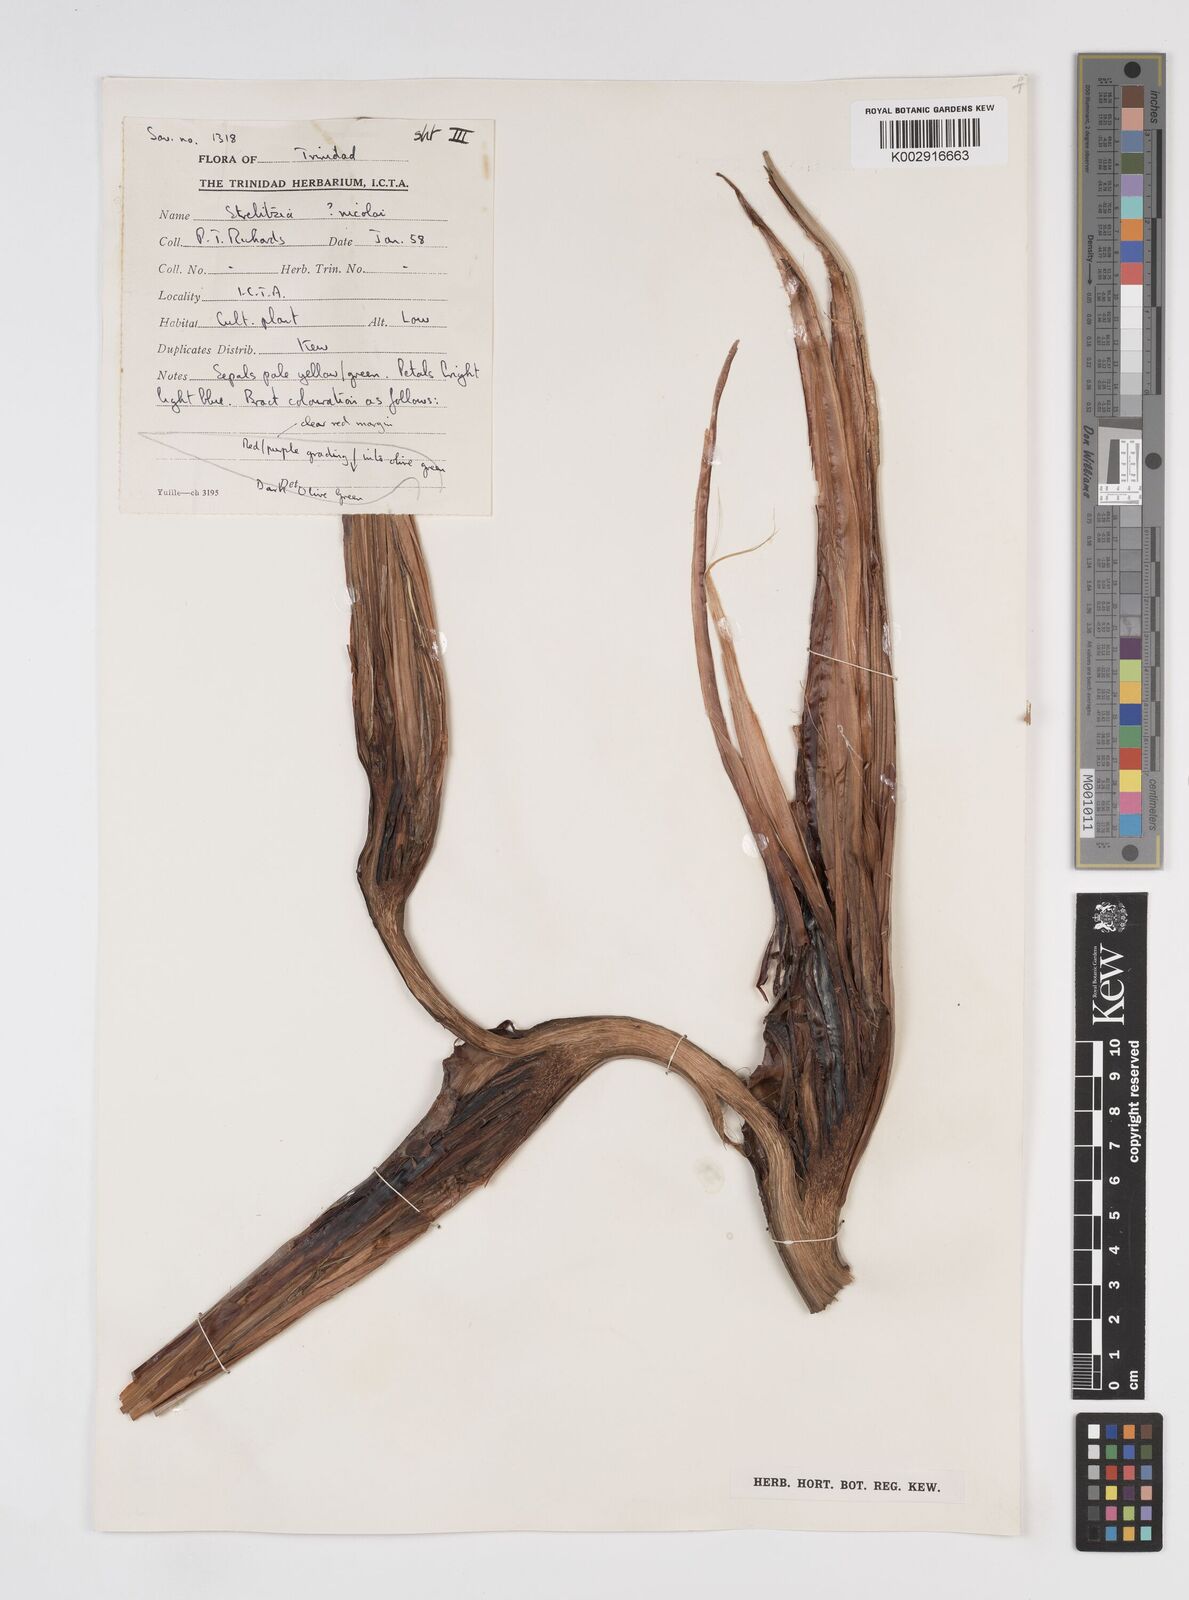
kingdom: Plantae
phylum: Tracheophyta
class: Liliopsida
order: Zingiberales
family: Strelitziaceae
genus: Strelitzia
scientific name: Strelitzia nicolai
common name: Bird-of-paradise tree
